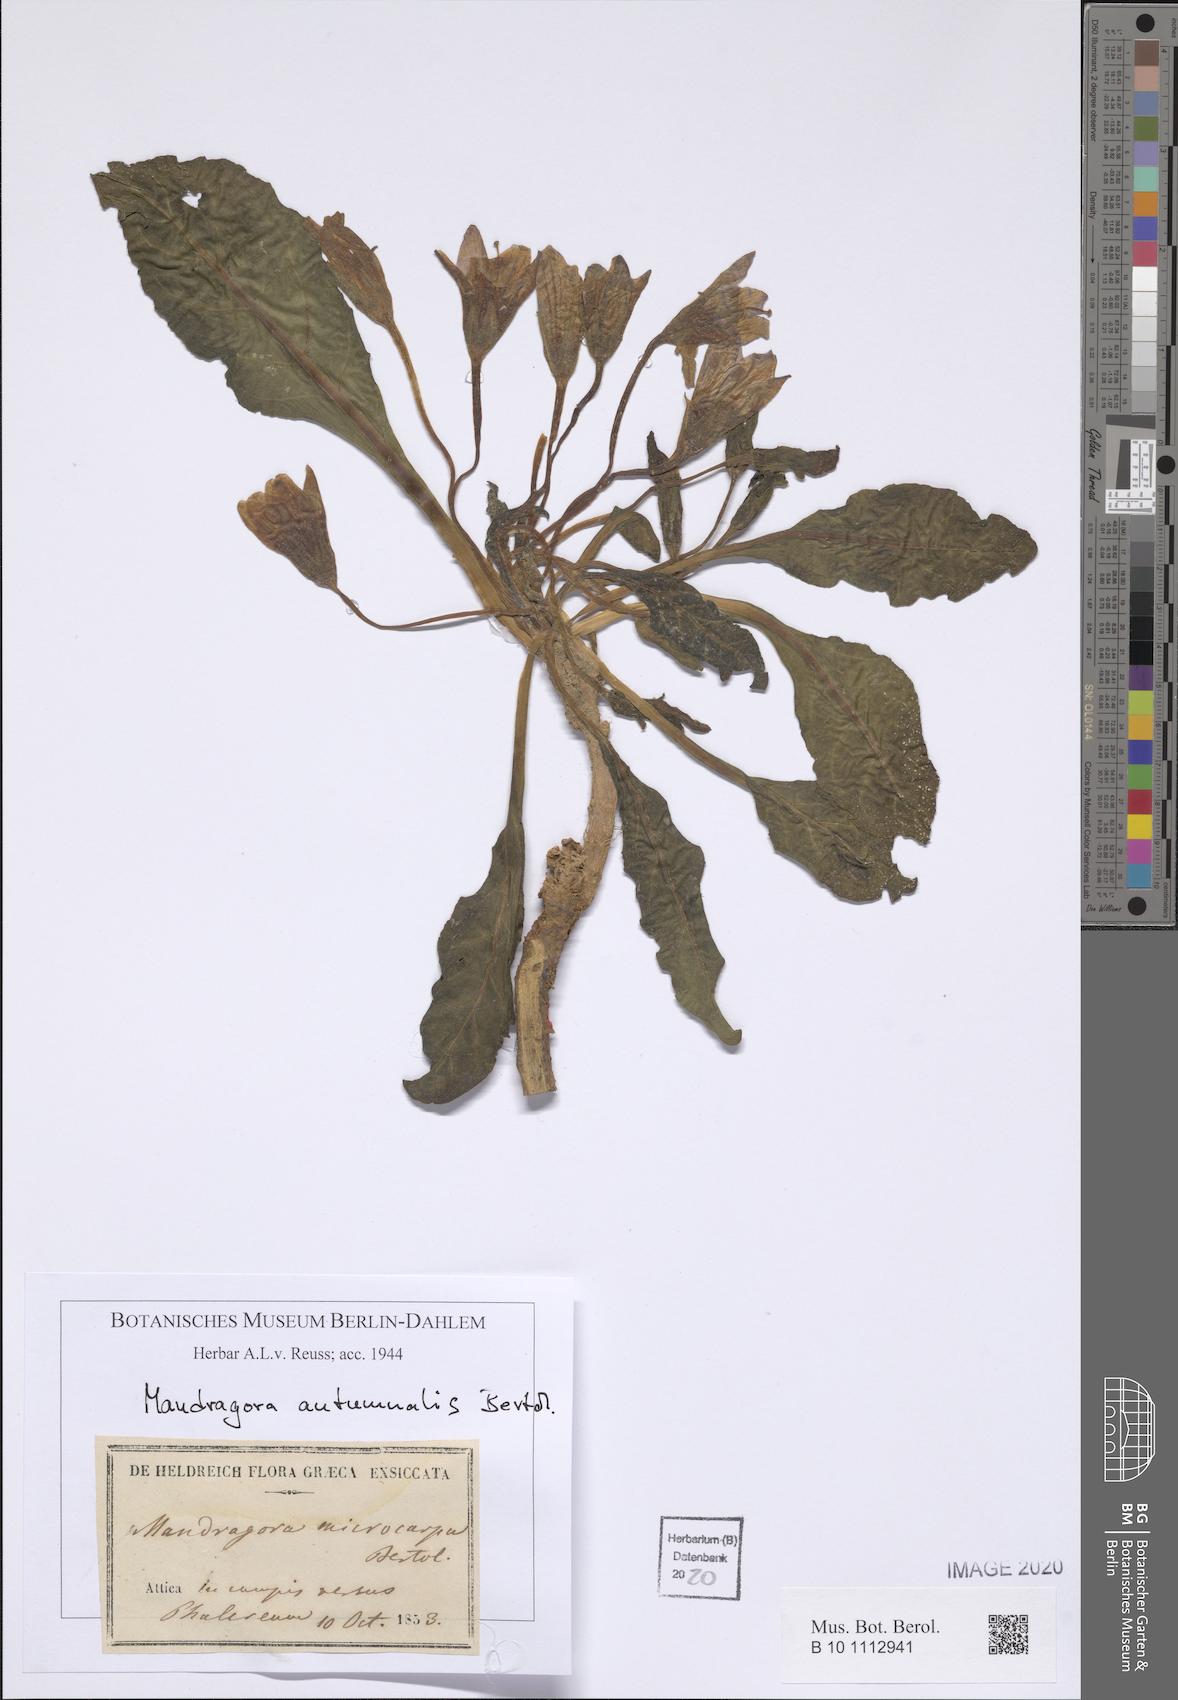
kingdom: Plantae
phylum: Tracheophyta
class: Magnoliopsida
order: Solanales
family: Solanaceae
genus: Mandragora
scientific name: Mandragora officinarum
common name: Mandrake
